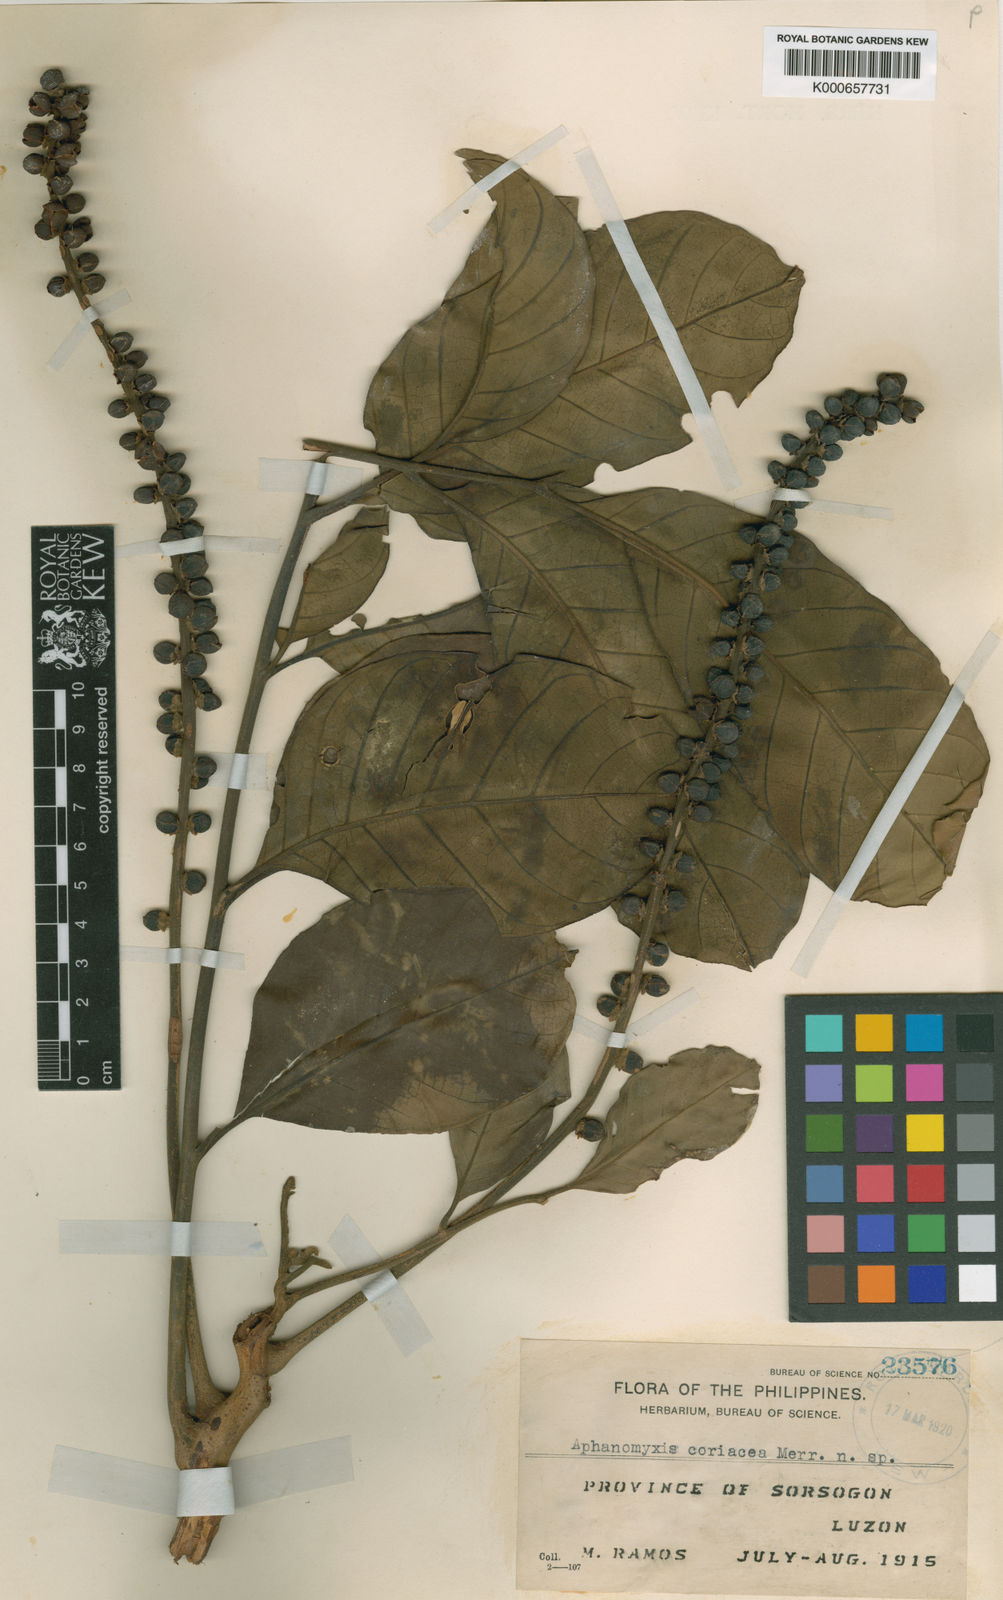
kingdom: Plantae
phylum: Tracheophyta
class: Magnoliopsida
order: Sapindales
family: Meliaceae
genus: Aphanamixis
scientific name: Aphanamixis polystachya
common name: Pithraj tree
